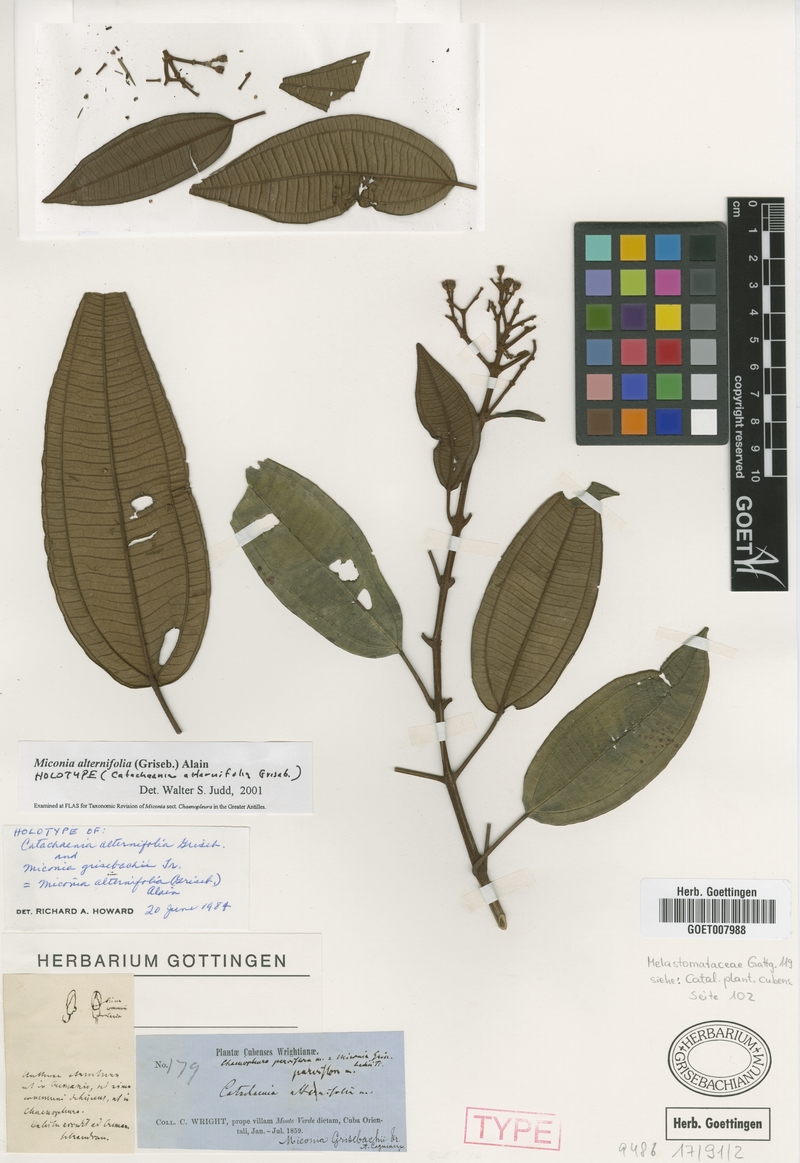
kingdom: Plantae
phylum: Tracheophyta
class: Magnoliopsida
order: Myrtales
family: Melastomataceae
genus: Miconia
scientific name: Miconia alternifolia
